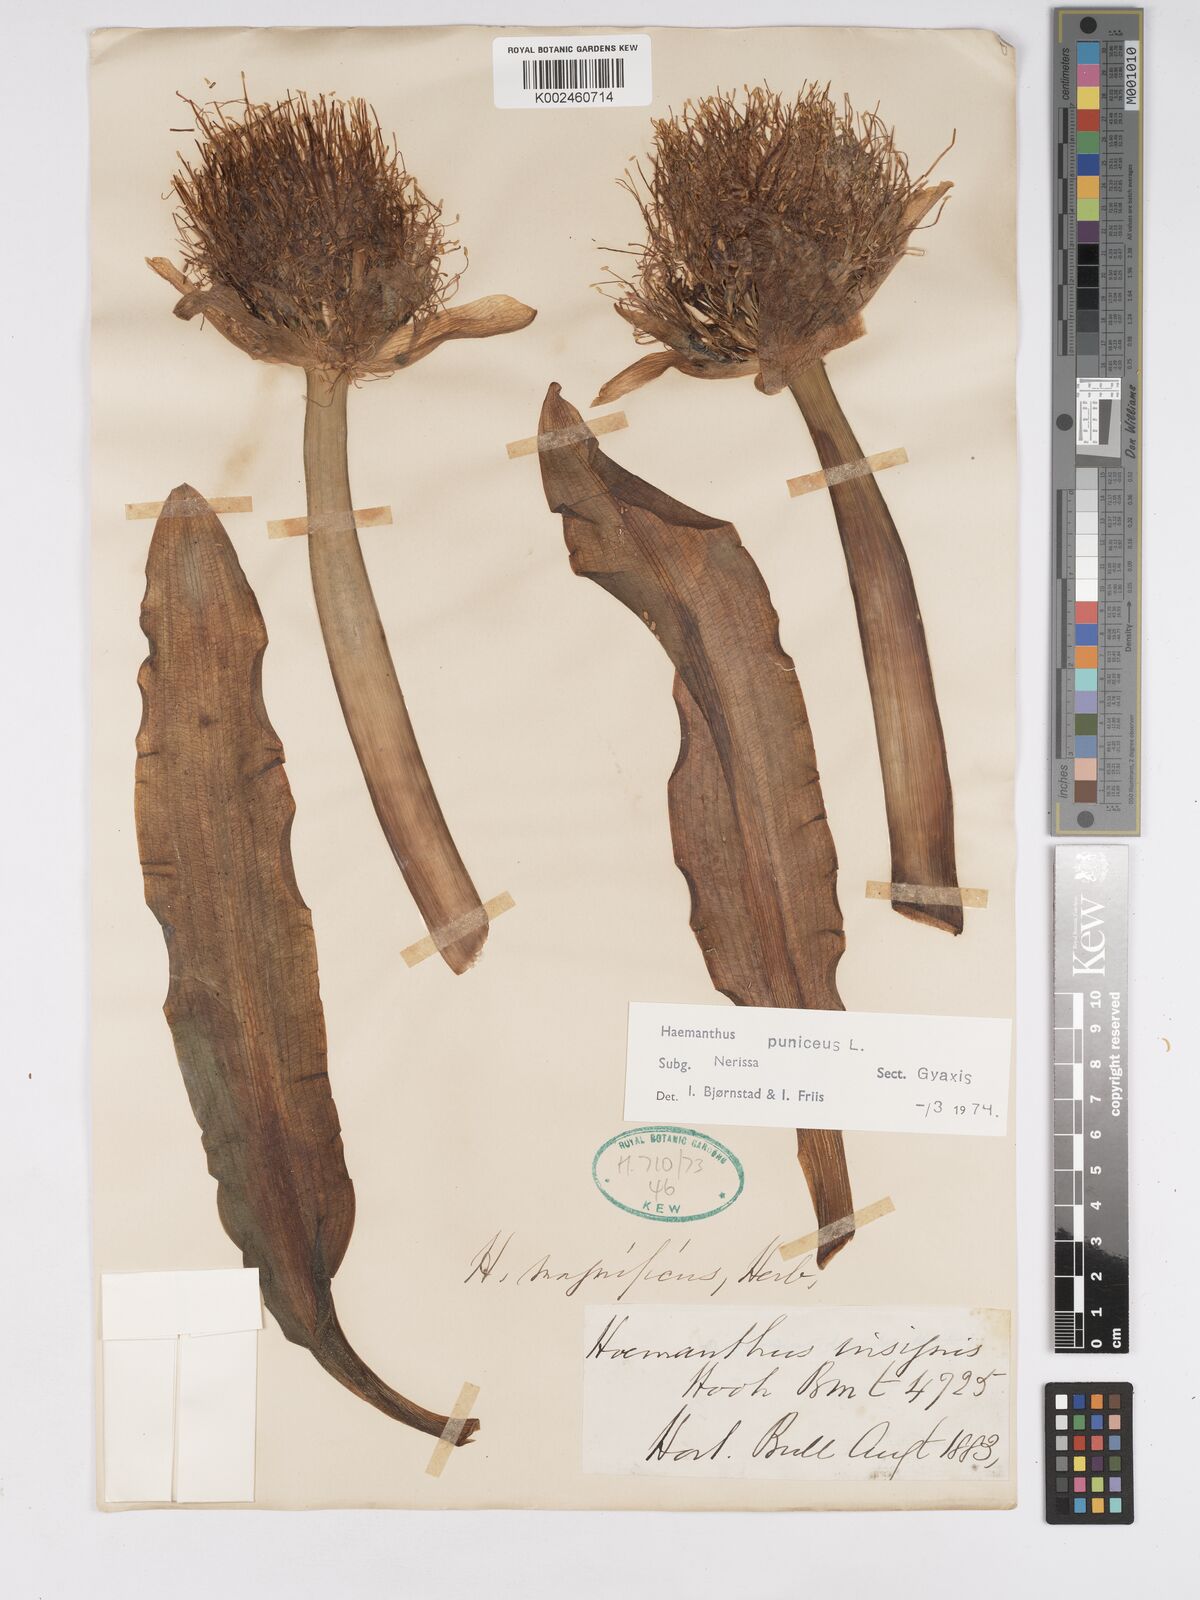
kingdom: Plantae
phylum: Tracheophyta
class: Liliopsida
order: Asparagales
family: Amaryllidaceae
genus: Scadoxus
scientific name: Scadoxus puniceus
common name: Royal-paintbrush
